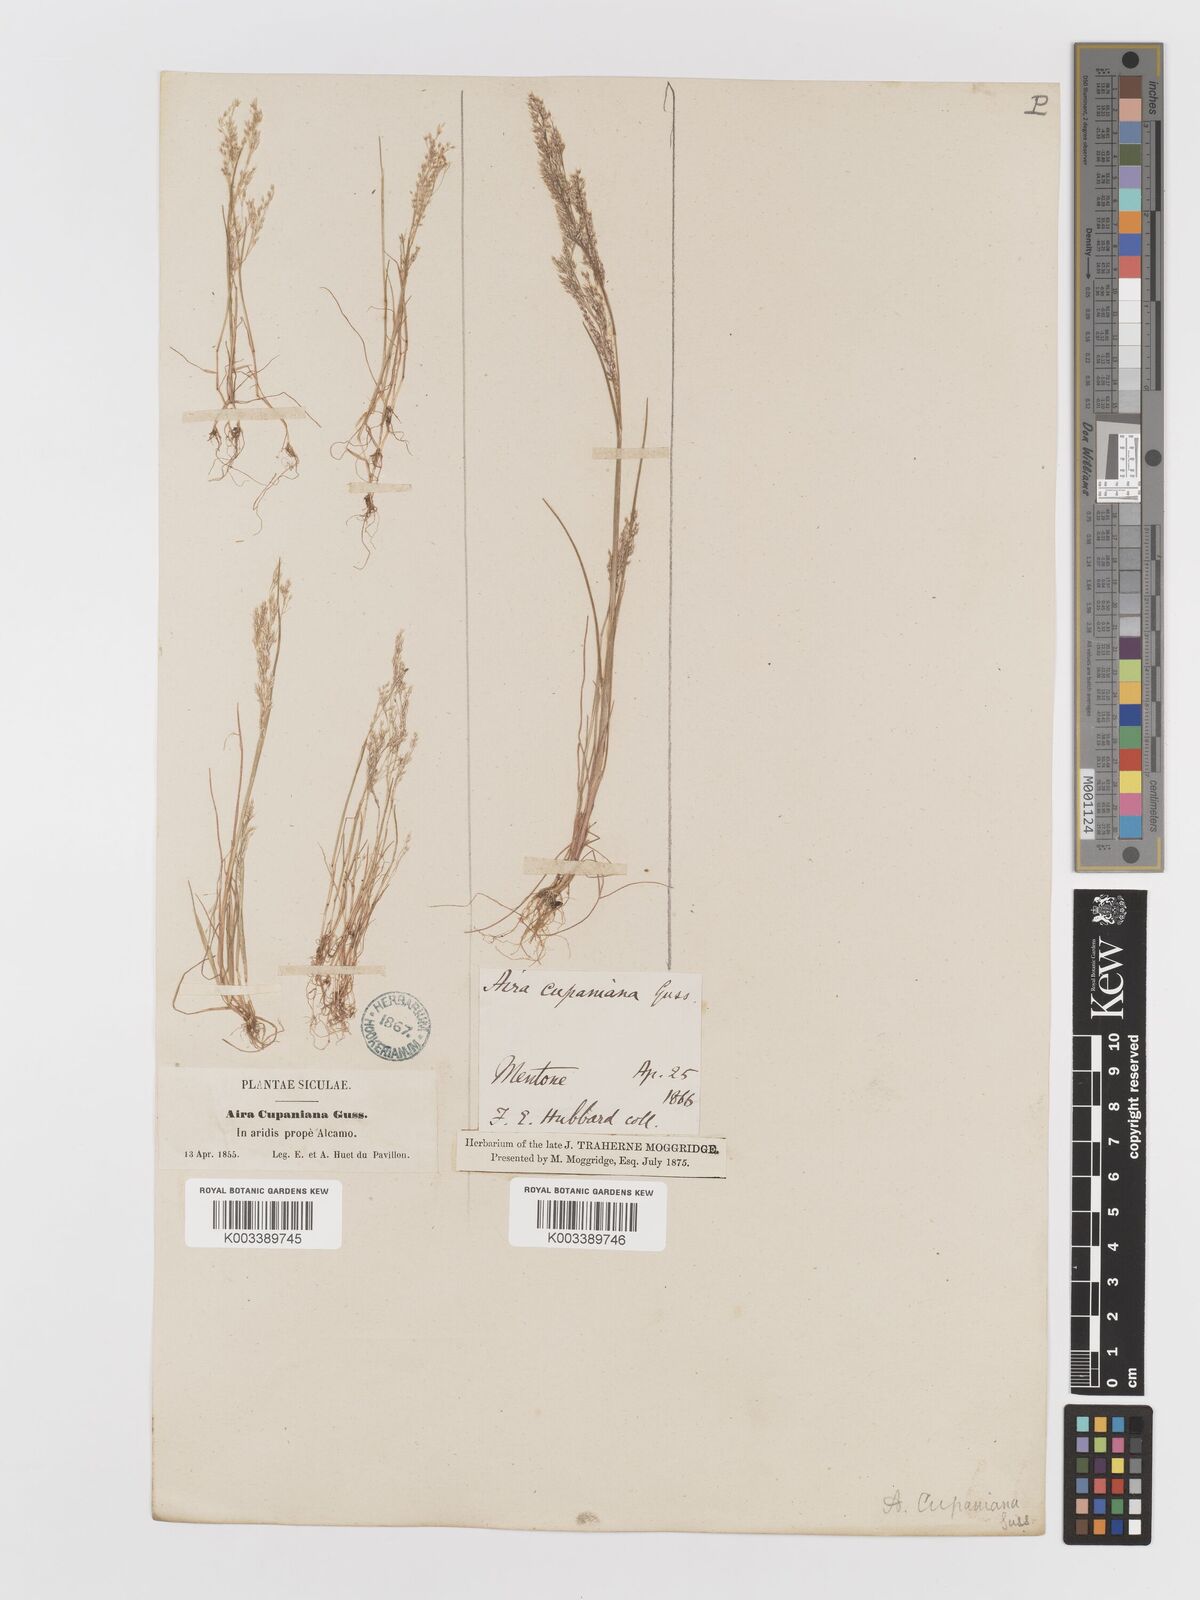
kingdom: Plantae
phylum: Tracheophyta
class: Liliopsida
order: Poales
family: Poaceae
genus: Aira
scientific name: Aira cupaniana
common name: Silver hairgrass
